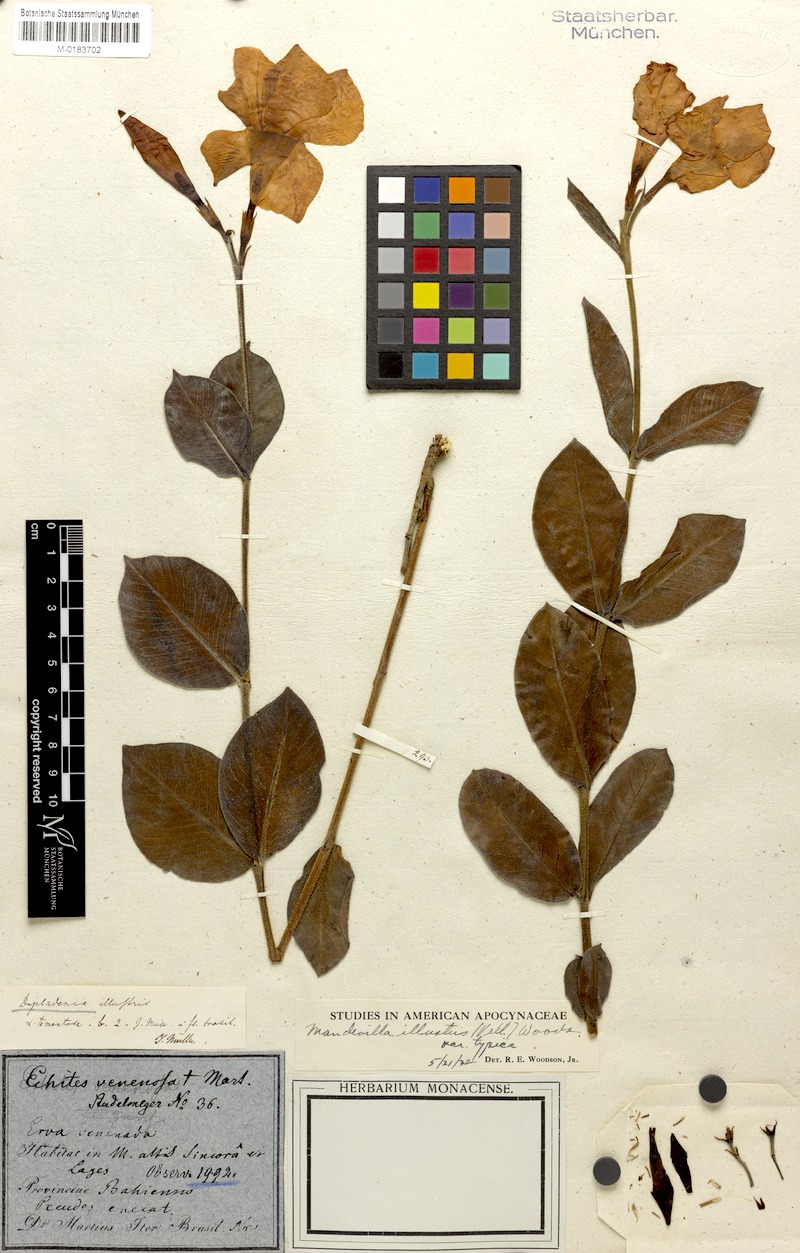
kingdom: Plantae
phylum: Tracheophyta
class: Magnoliopsida
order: Gentianales
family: Apocynaceae
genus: Mandevilla
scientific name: Mandevilla illustris
